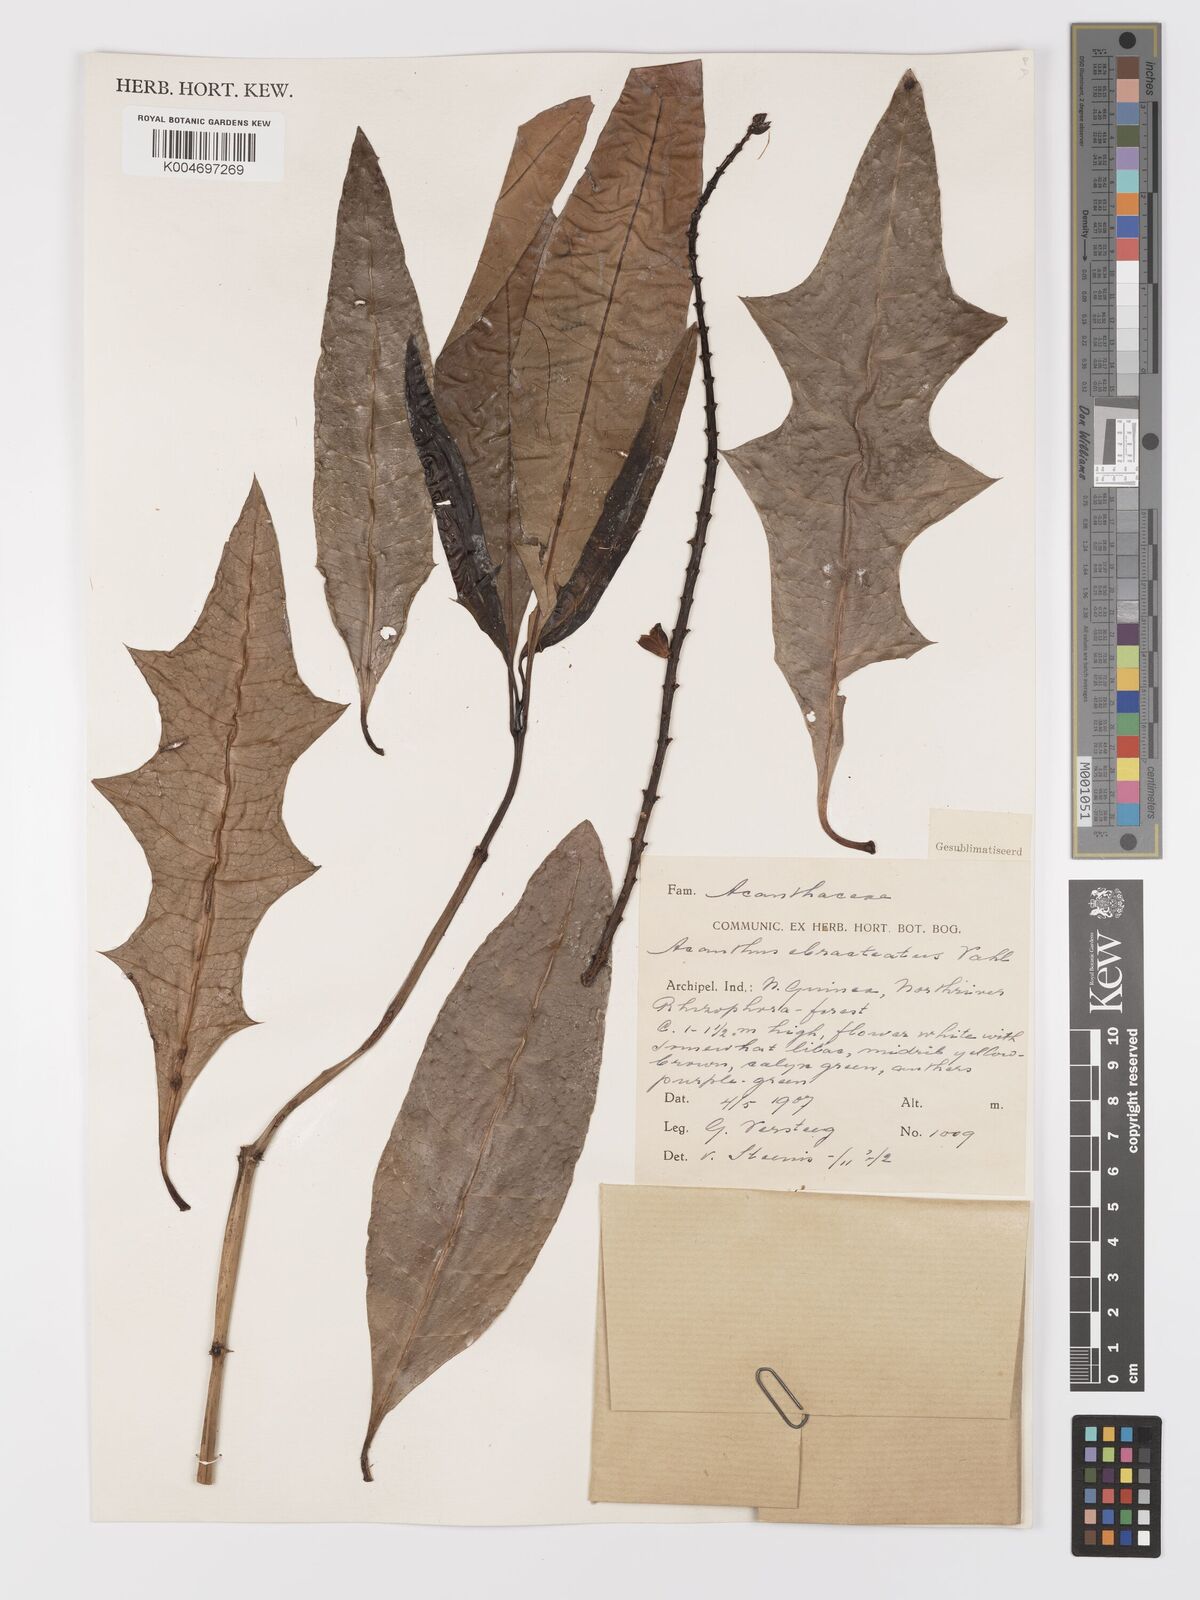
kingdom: Plantae
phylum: Tracheophyta
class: Magnoliopsida
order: Lamiales
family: Acanthaceae
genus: Acanthus
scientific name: Acanthus ebracteatus
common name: Acanthus
